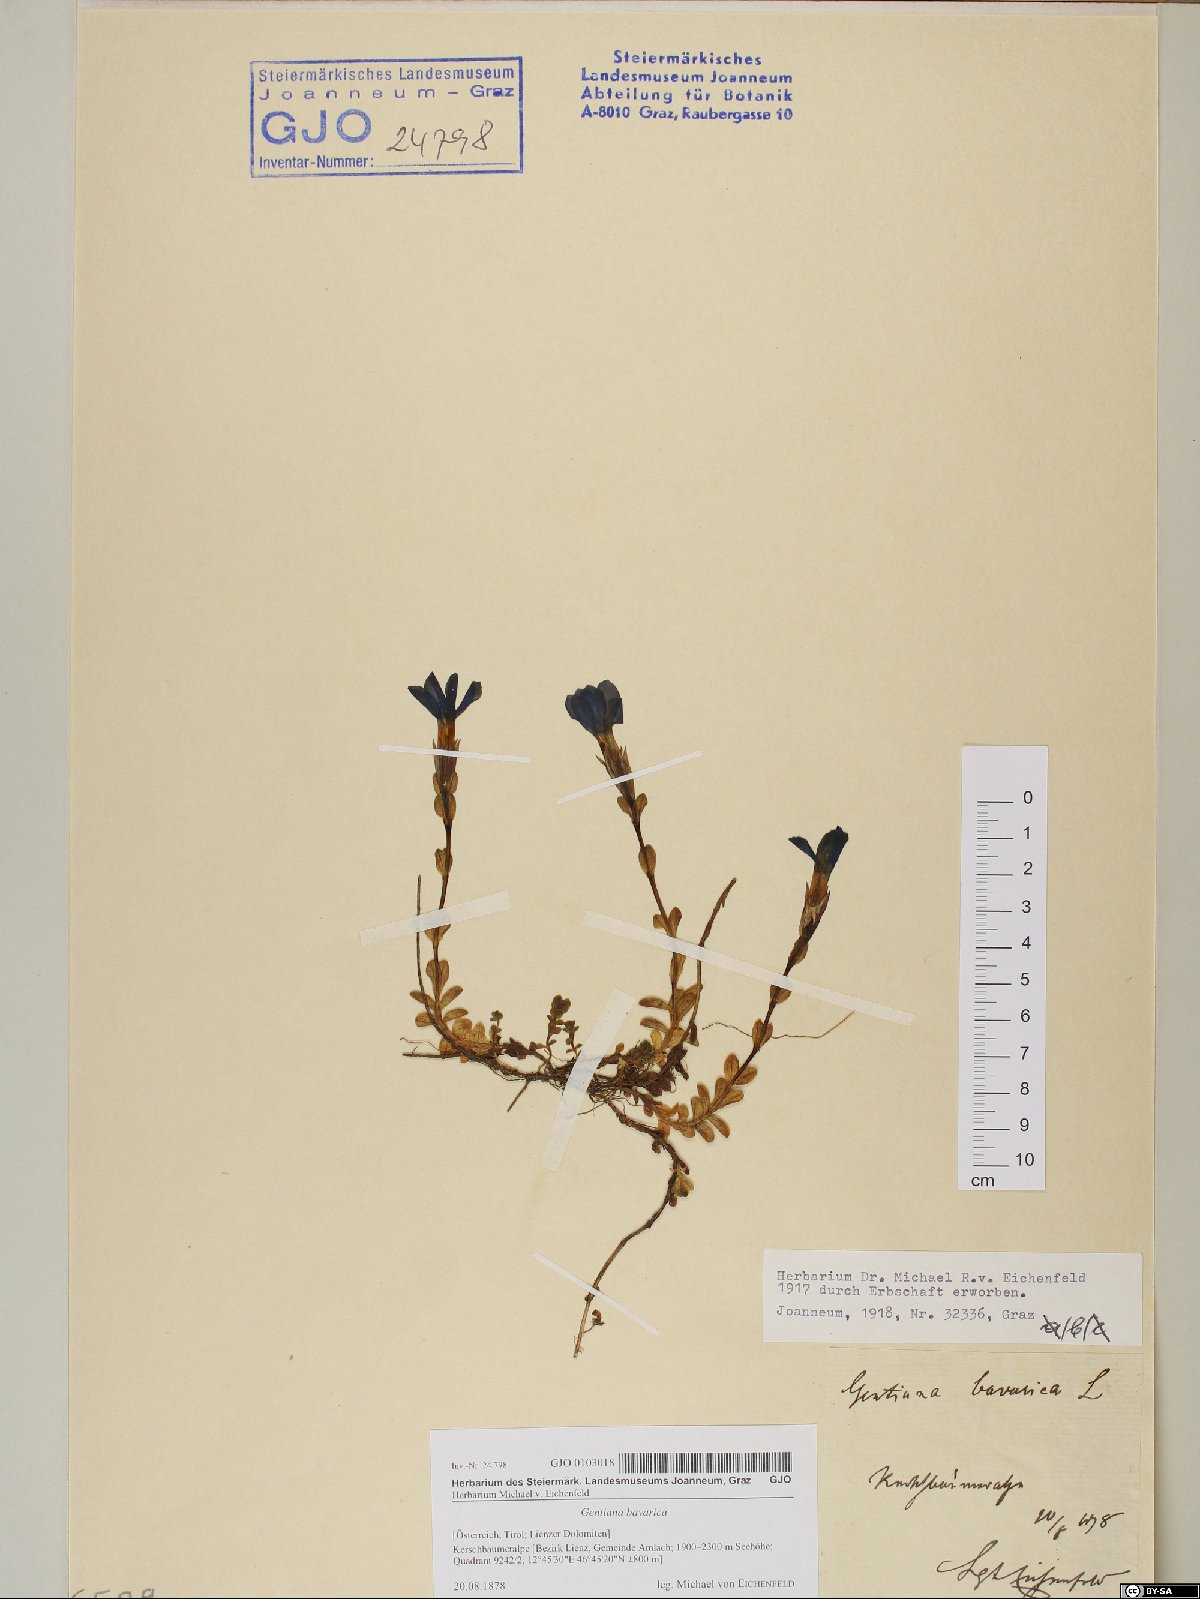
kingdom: Plantae
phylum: Tracheophyta
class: Magnoliopsida
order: Gentianales
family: Gentianaceae
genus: Gentiana
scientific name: Gentiana bavarica
